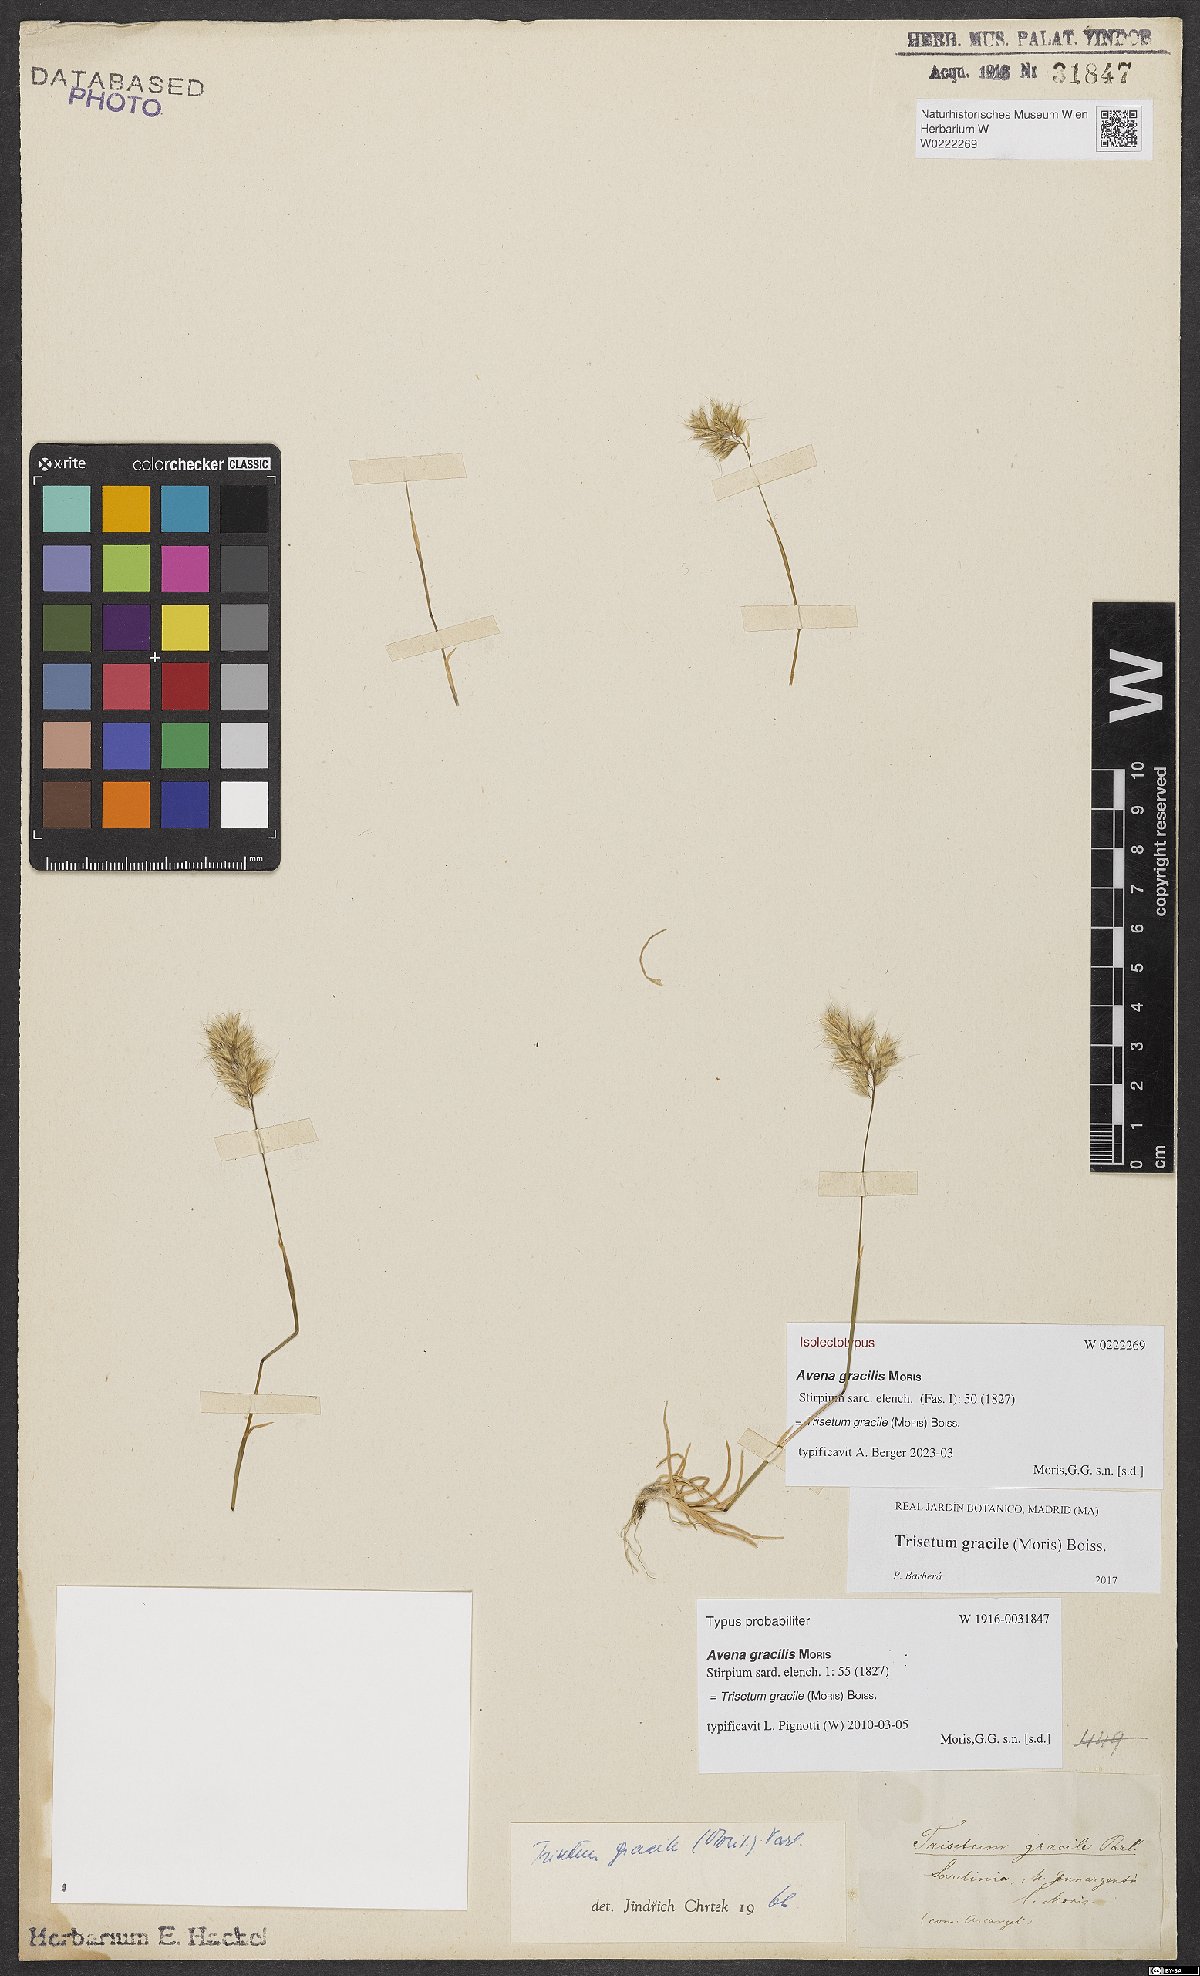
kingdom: Plantae
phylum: Tracheophyta
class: Liliopsida
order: Poales
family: Poaceae
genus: Trisetum
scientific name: Trisetum gracile
